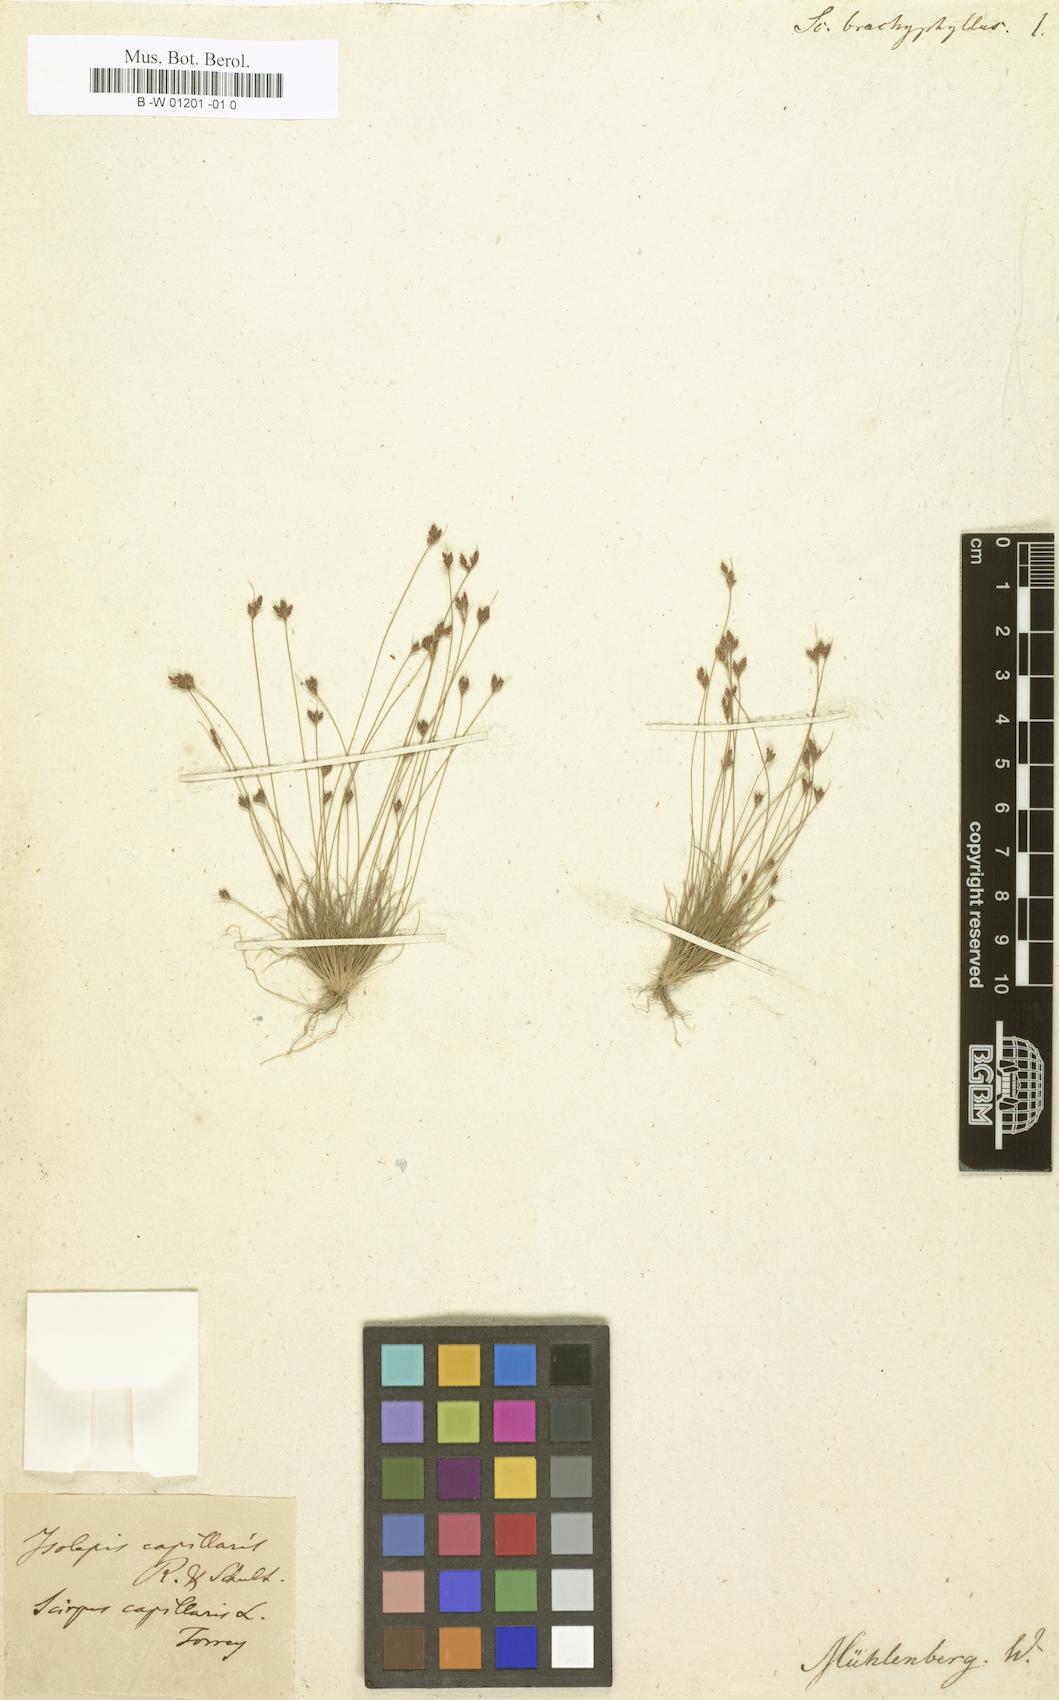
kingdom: Plantae
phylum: Tracheophyta
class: Liliopsida
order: Poales
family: Cyperaceae
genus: Bulbostylis
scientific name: Bulbostylis
